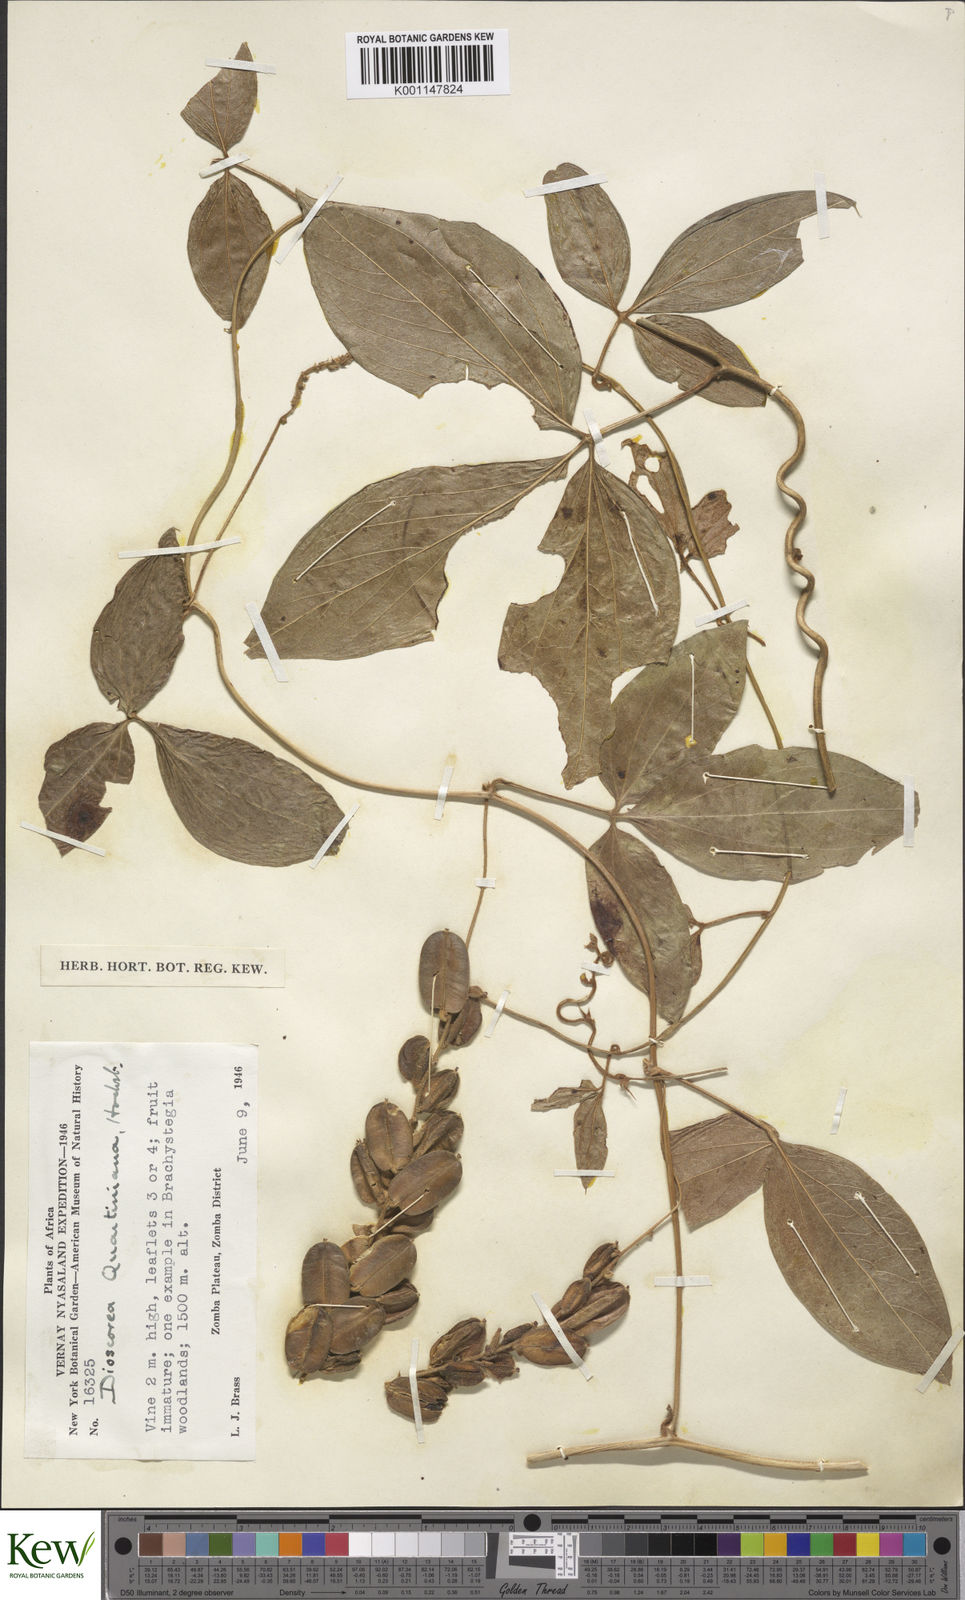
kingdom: Plantae
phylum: Tracheophyta
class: Liliopsida
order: Dioscoreales
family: Dioscoreaceae
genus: Dioscorea
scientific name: Dioscorea quartiniana
